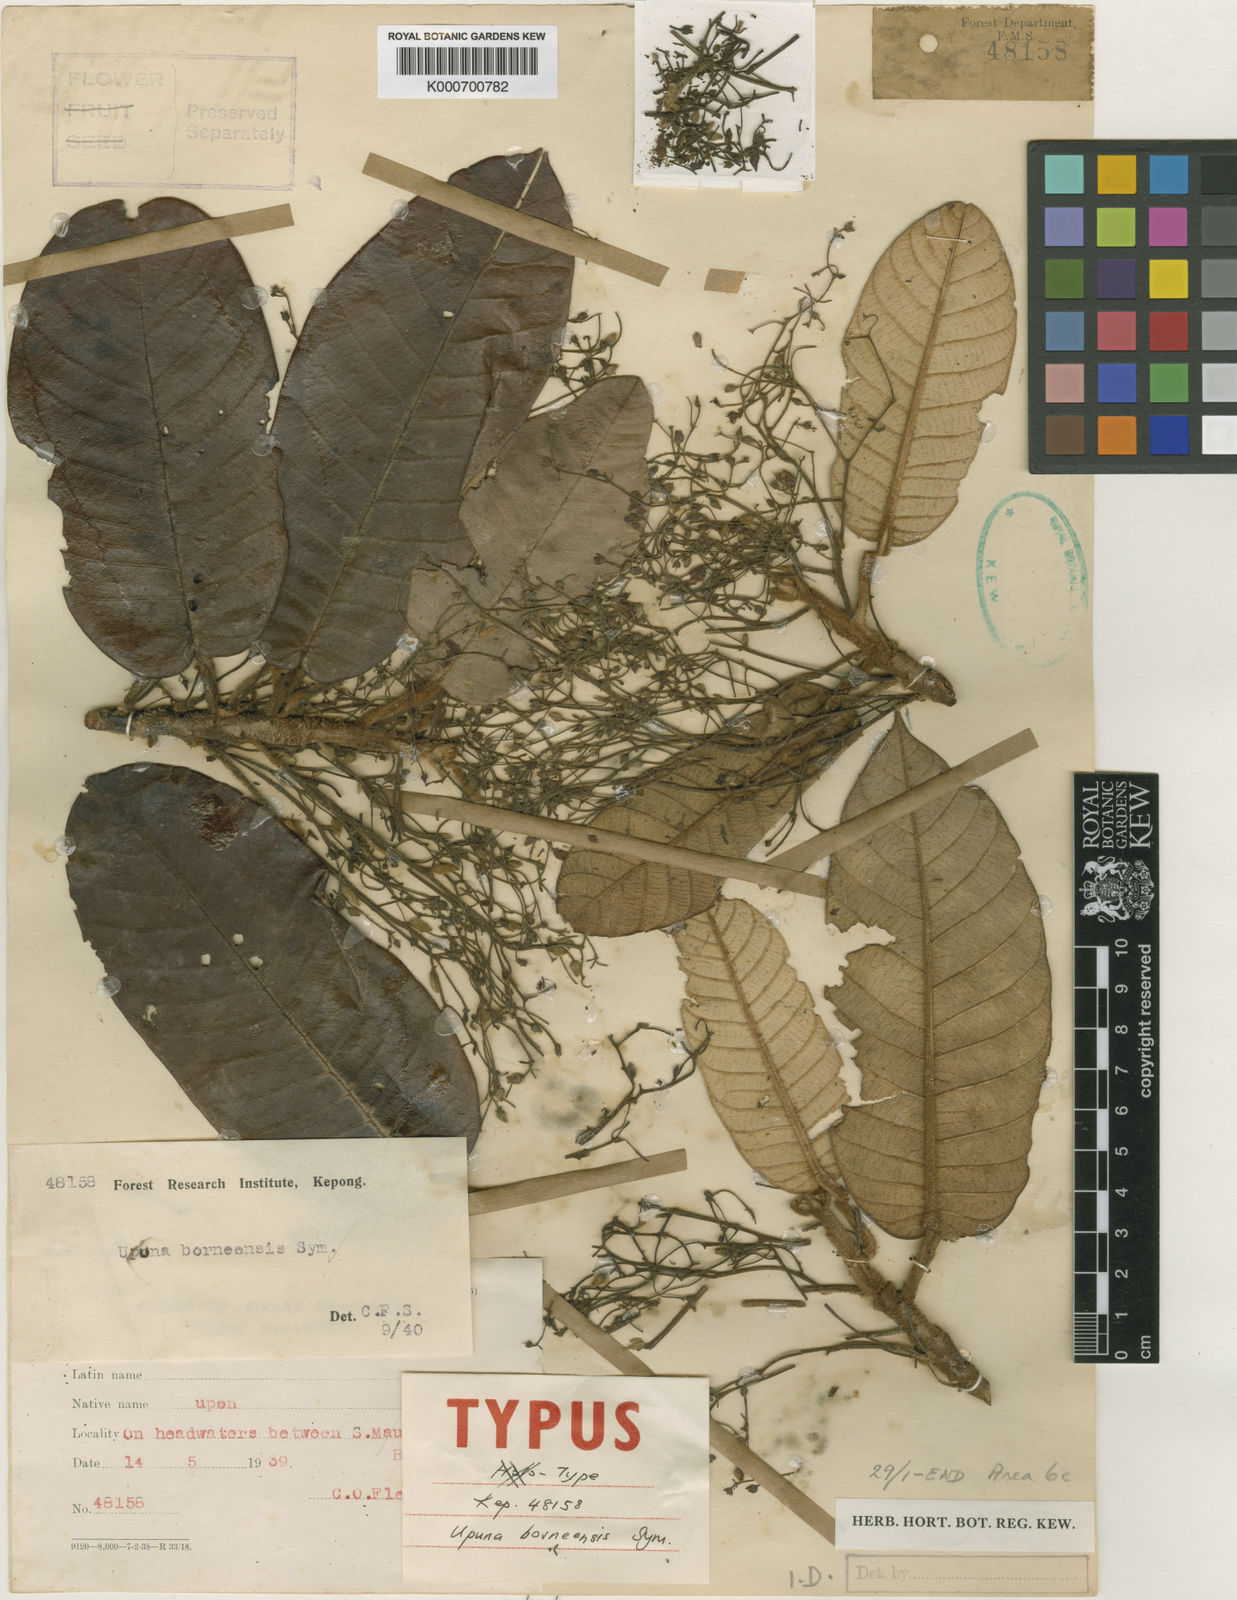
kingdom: Plantae
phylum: Tracheophyta
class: Magnoliopsida
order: Malvales
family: Dipterocarpaceae
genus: Upuna
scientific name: Upuna borneensis
